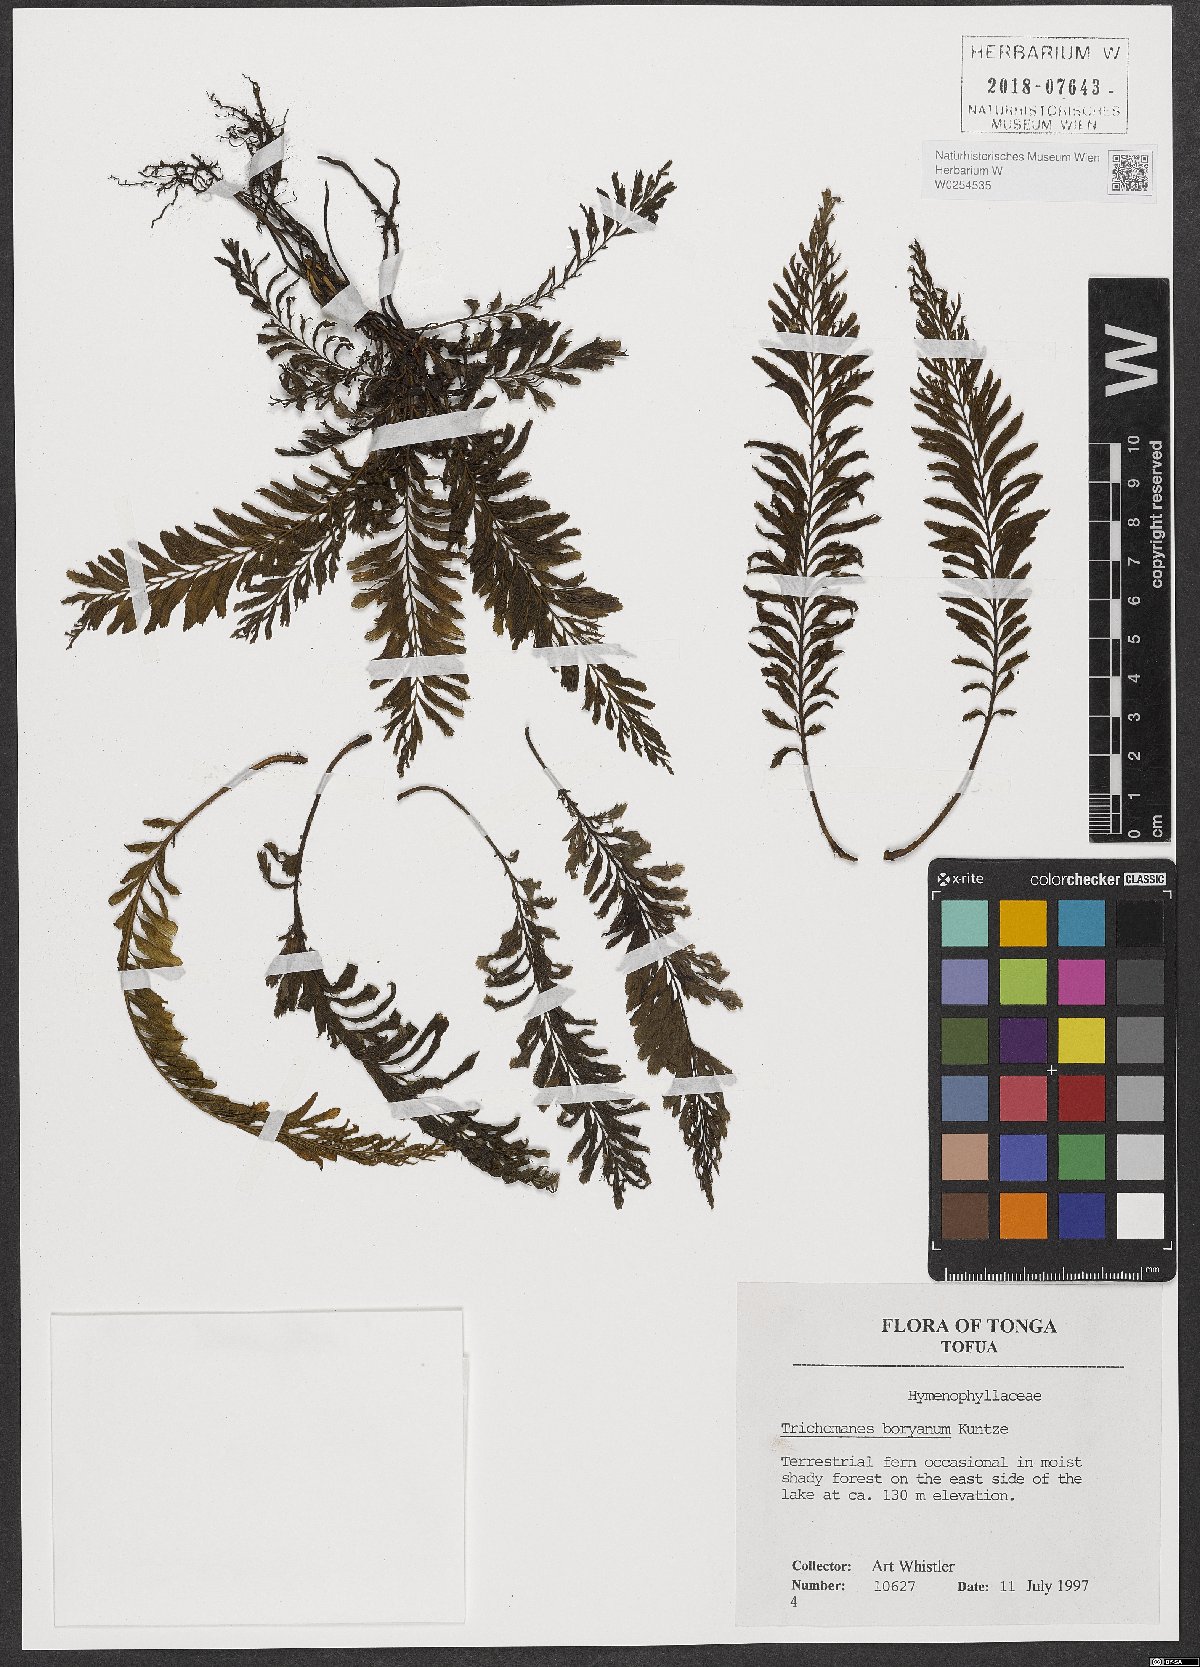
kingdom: Plantae
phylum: Tracheophyta
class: Polypodiopsida
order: Hymenophyllales
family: Hymenophyllaceae
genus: Cephalomanes
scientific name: Cephalomanes boryanum
